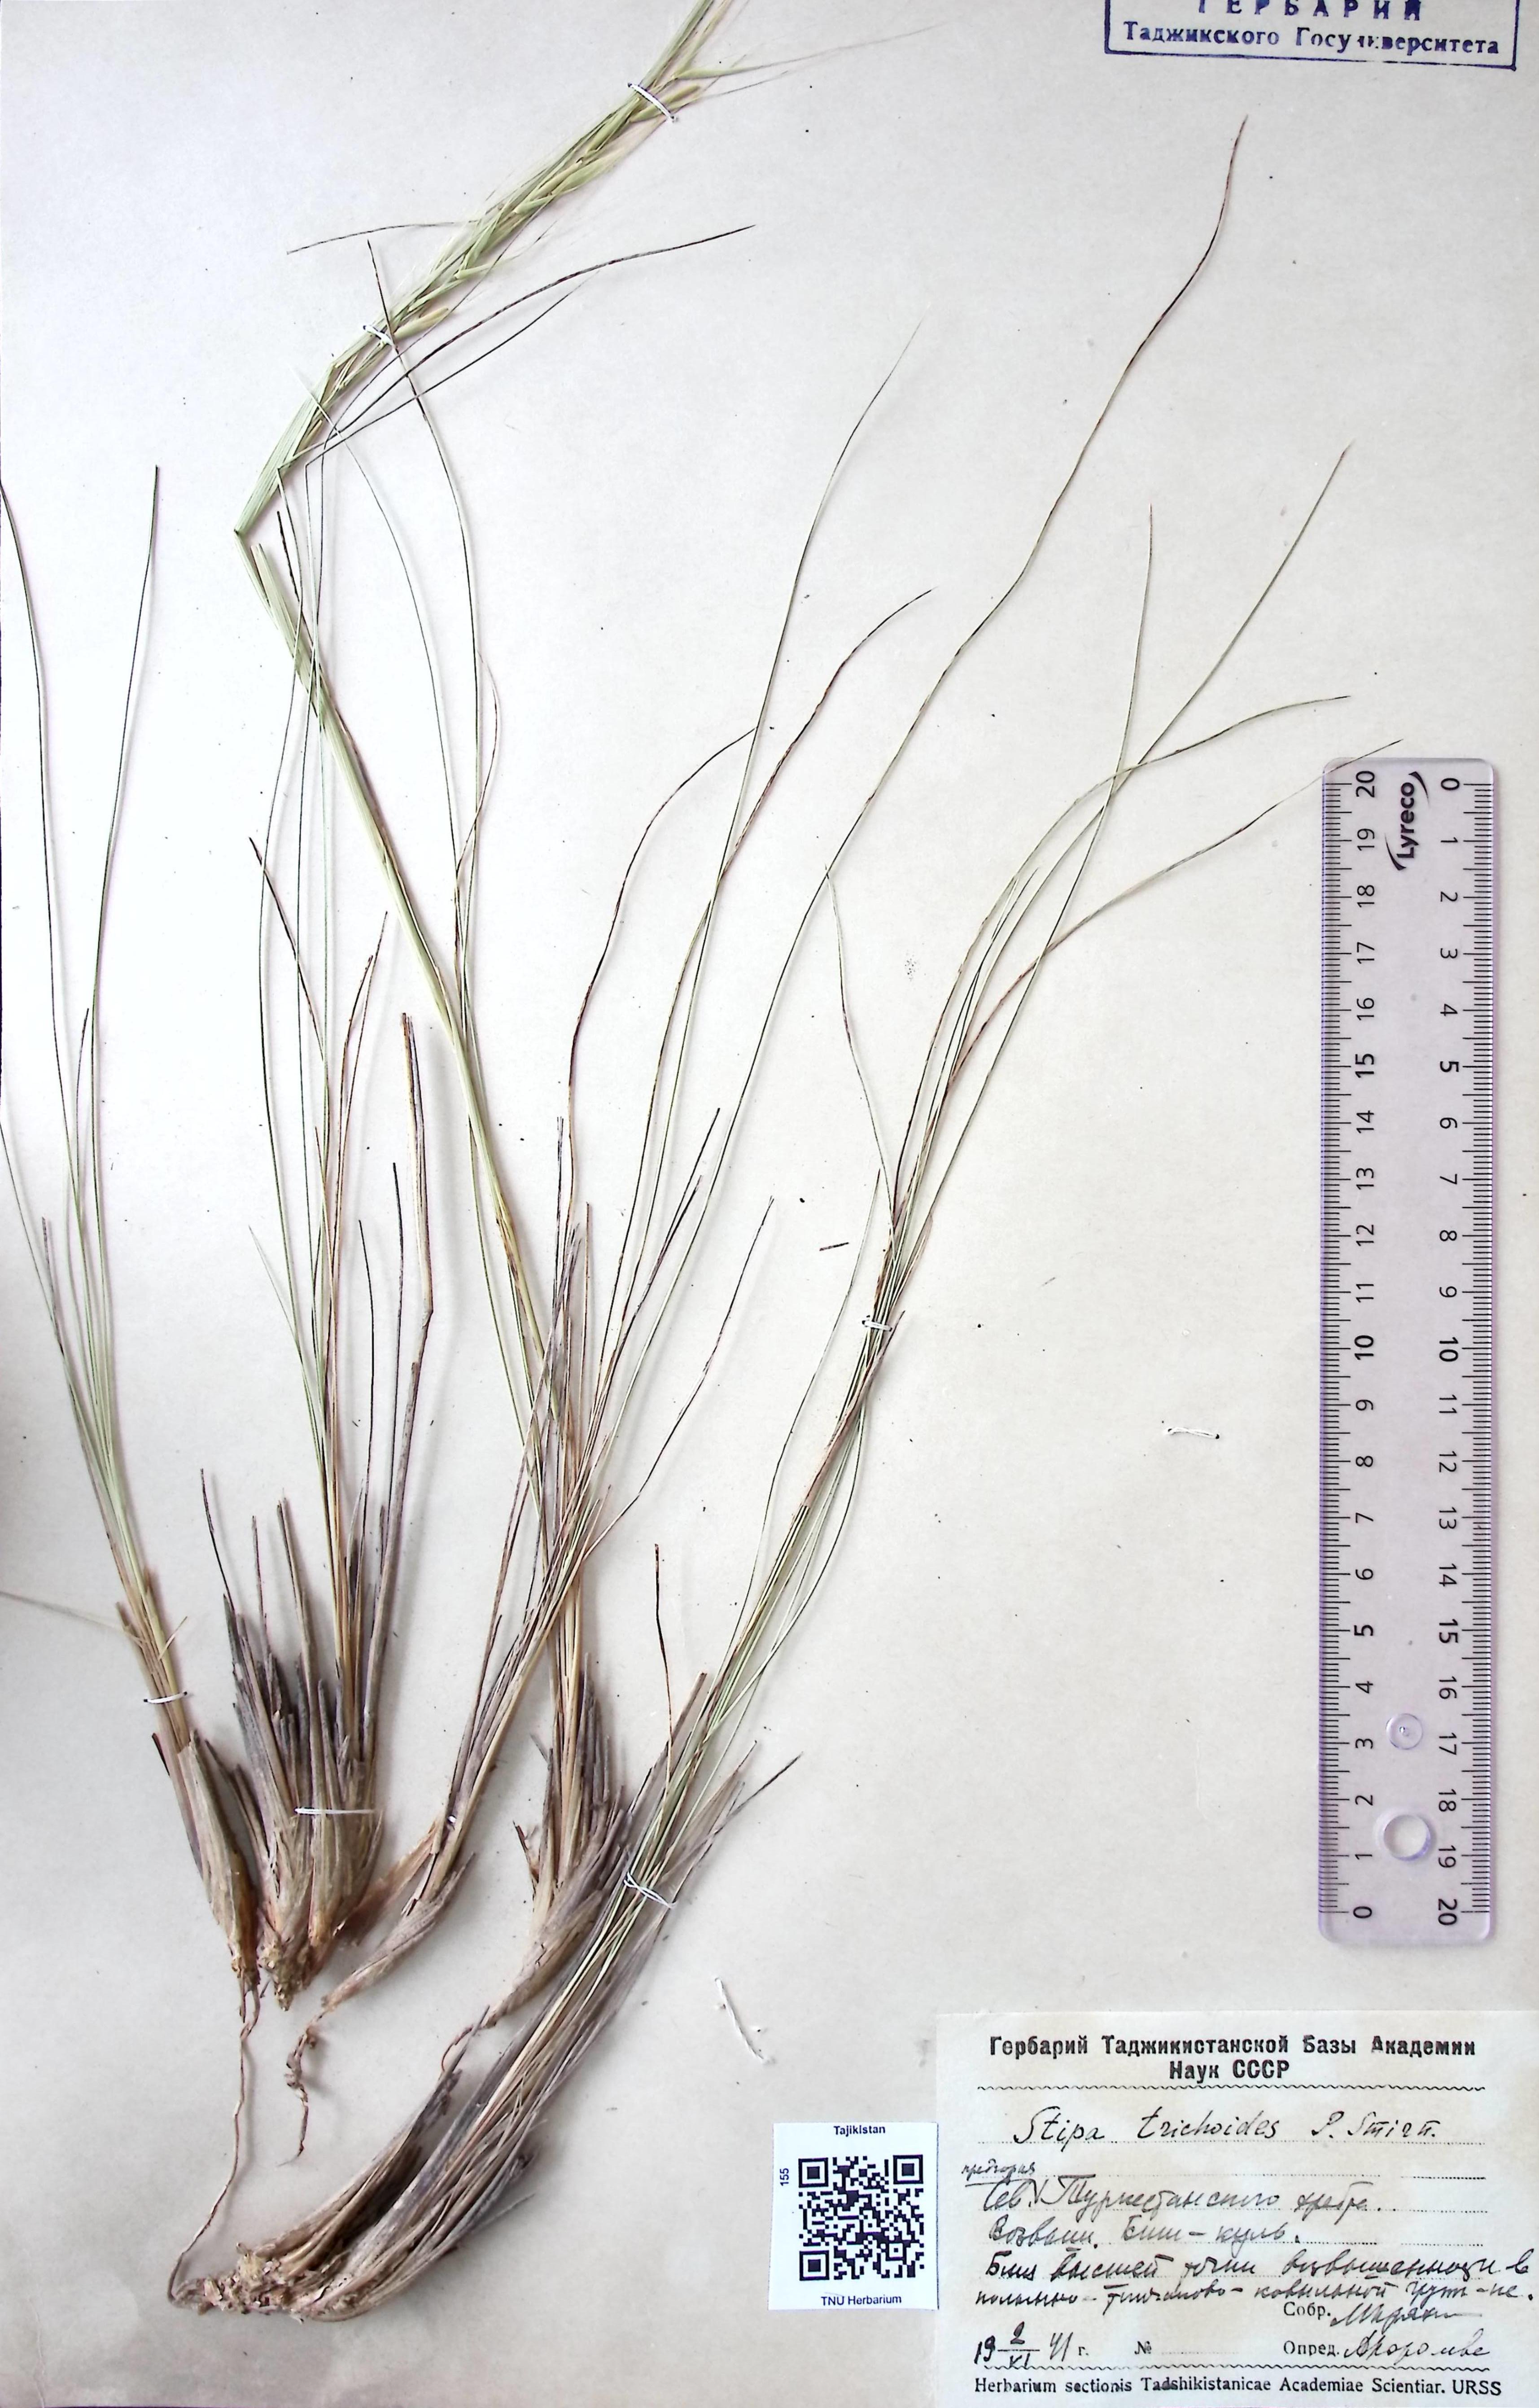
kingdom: Plantae
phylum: Tracheophyta
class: Liliopsida
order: Poales
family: Poaceae
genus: Stipa
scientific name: Stipa trichoides
